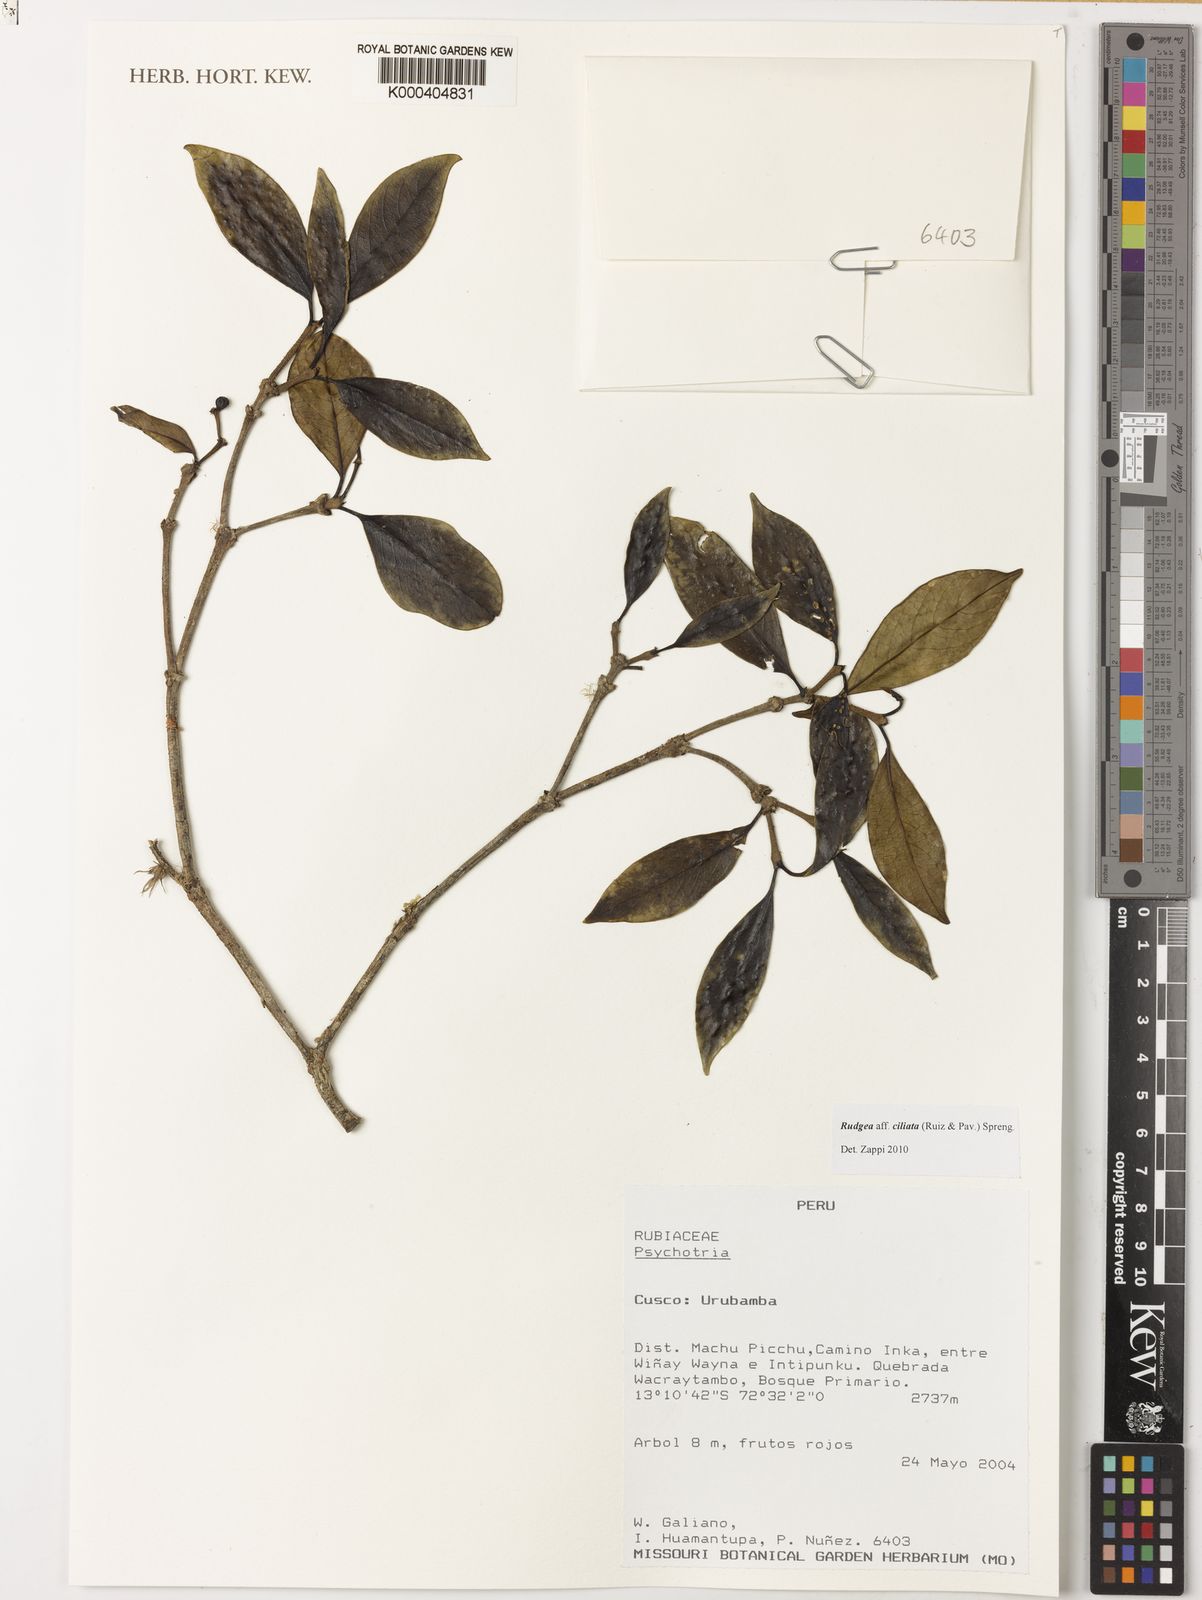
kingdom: Plantae
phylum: Tracheophyta
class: Magnoliopsida
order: Gentianales
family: Rubiaceae
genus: Rudgea
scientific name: Rudgea ciliata
